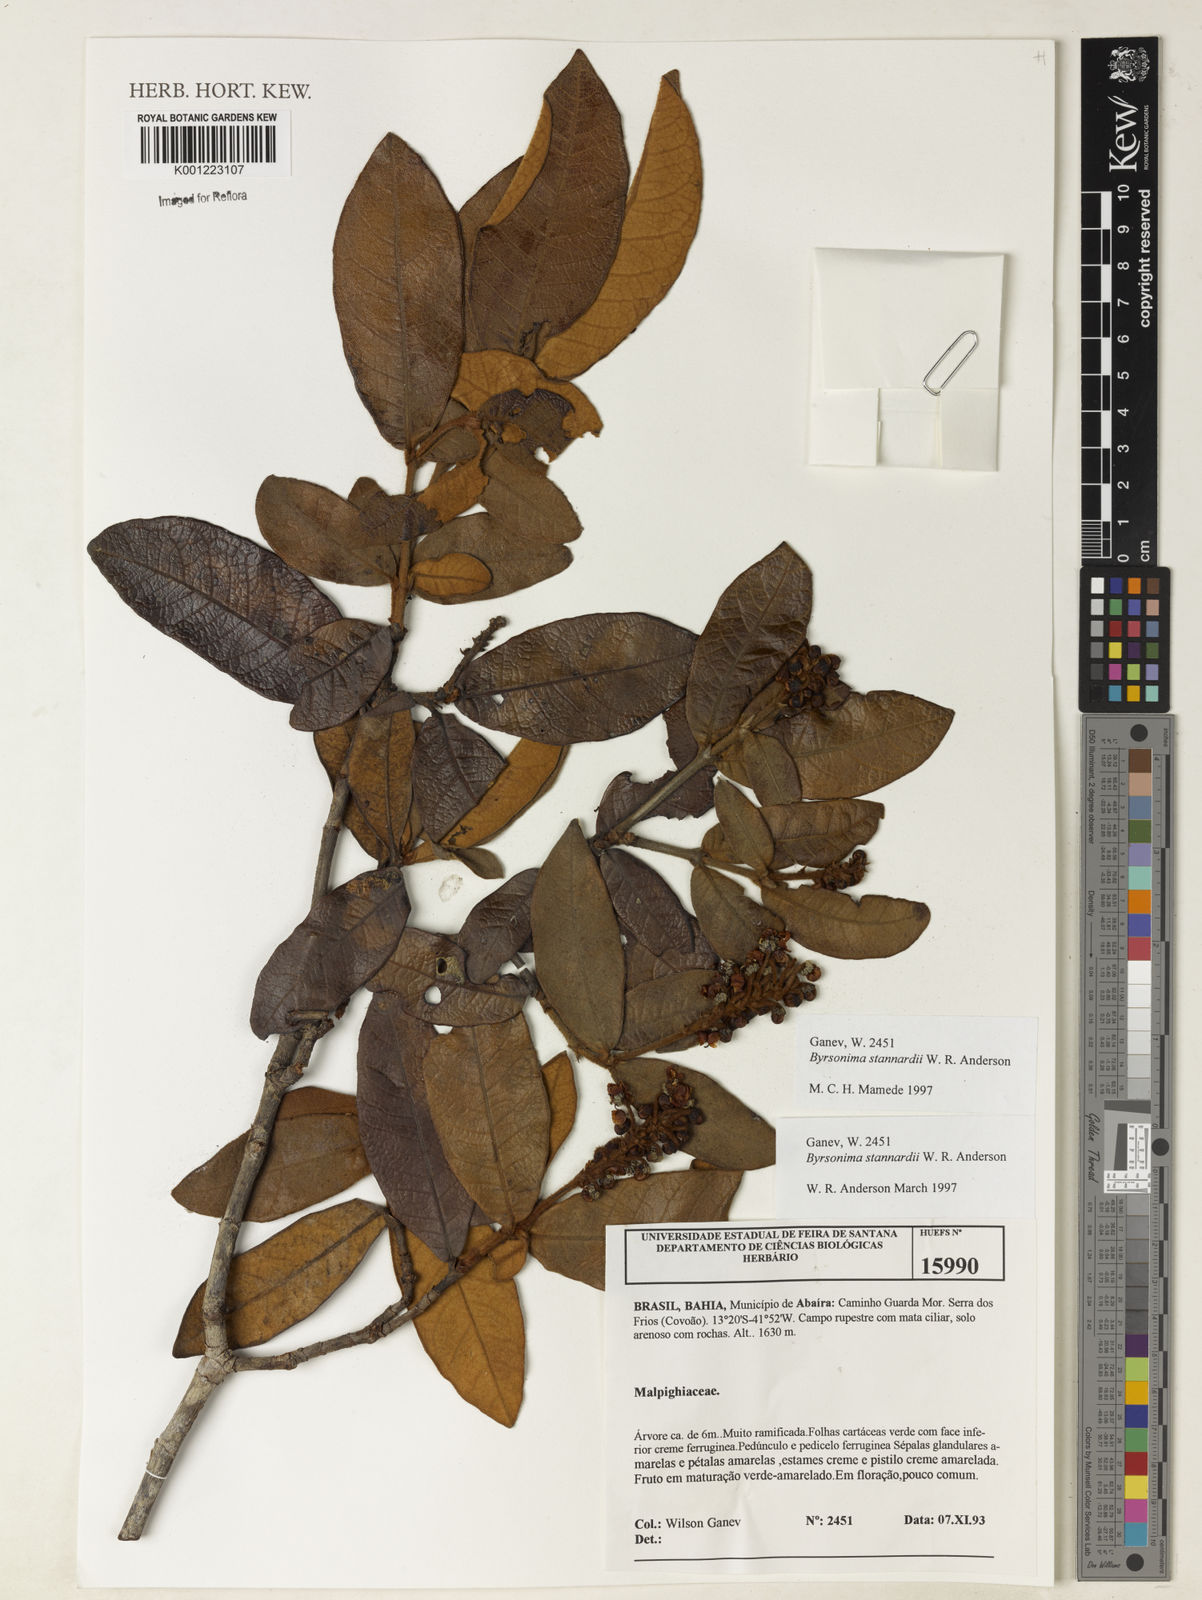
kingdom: Plantae
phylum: Tracheophyta
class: Magnoliopsida
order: Malpighiales
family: Malpighiaceae
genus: Byrsonima
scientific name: Byrsonima stannardii
